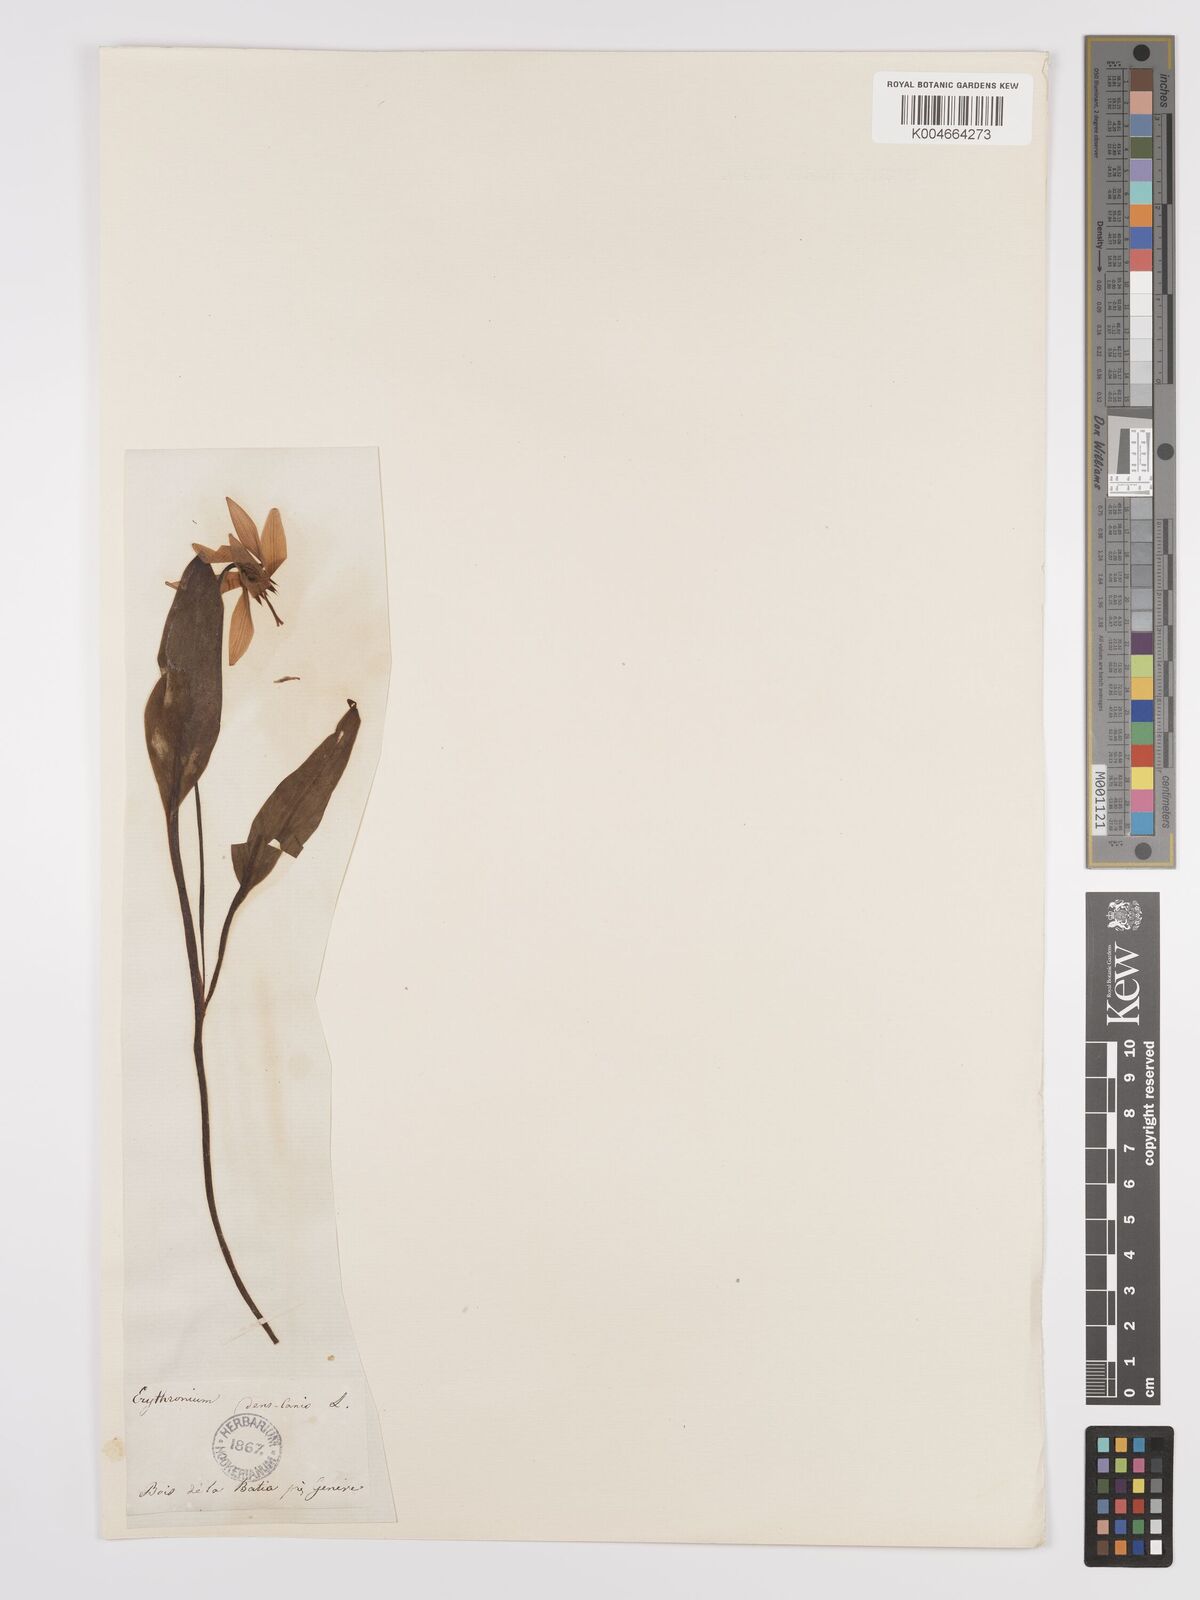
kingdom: Plantae
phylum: Tracheophyta
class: Liliopsida
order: Liliales
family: Liliaceae
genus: Erythronium
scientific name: Erythronium dens-canis
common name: Dog's-tooth-violet
